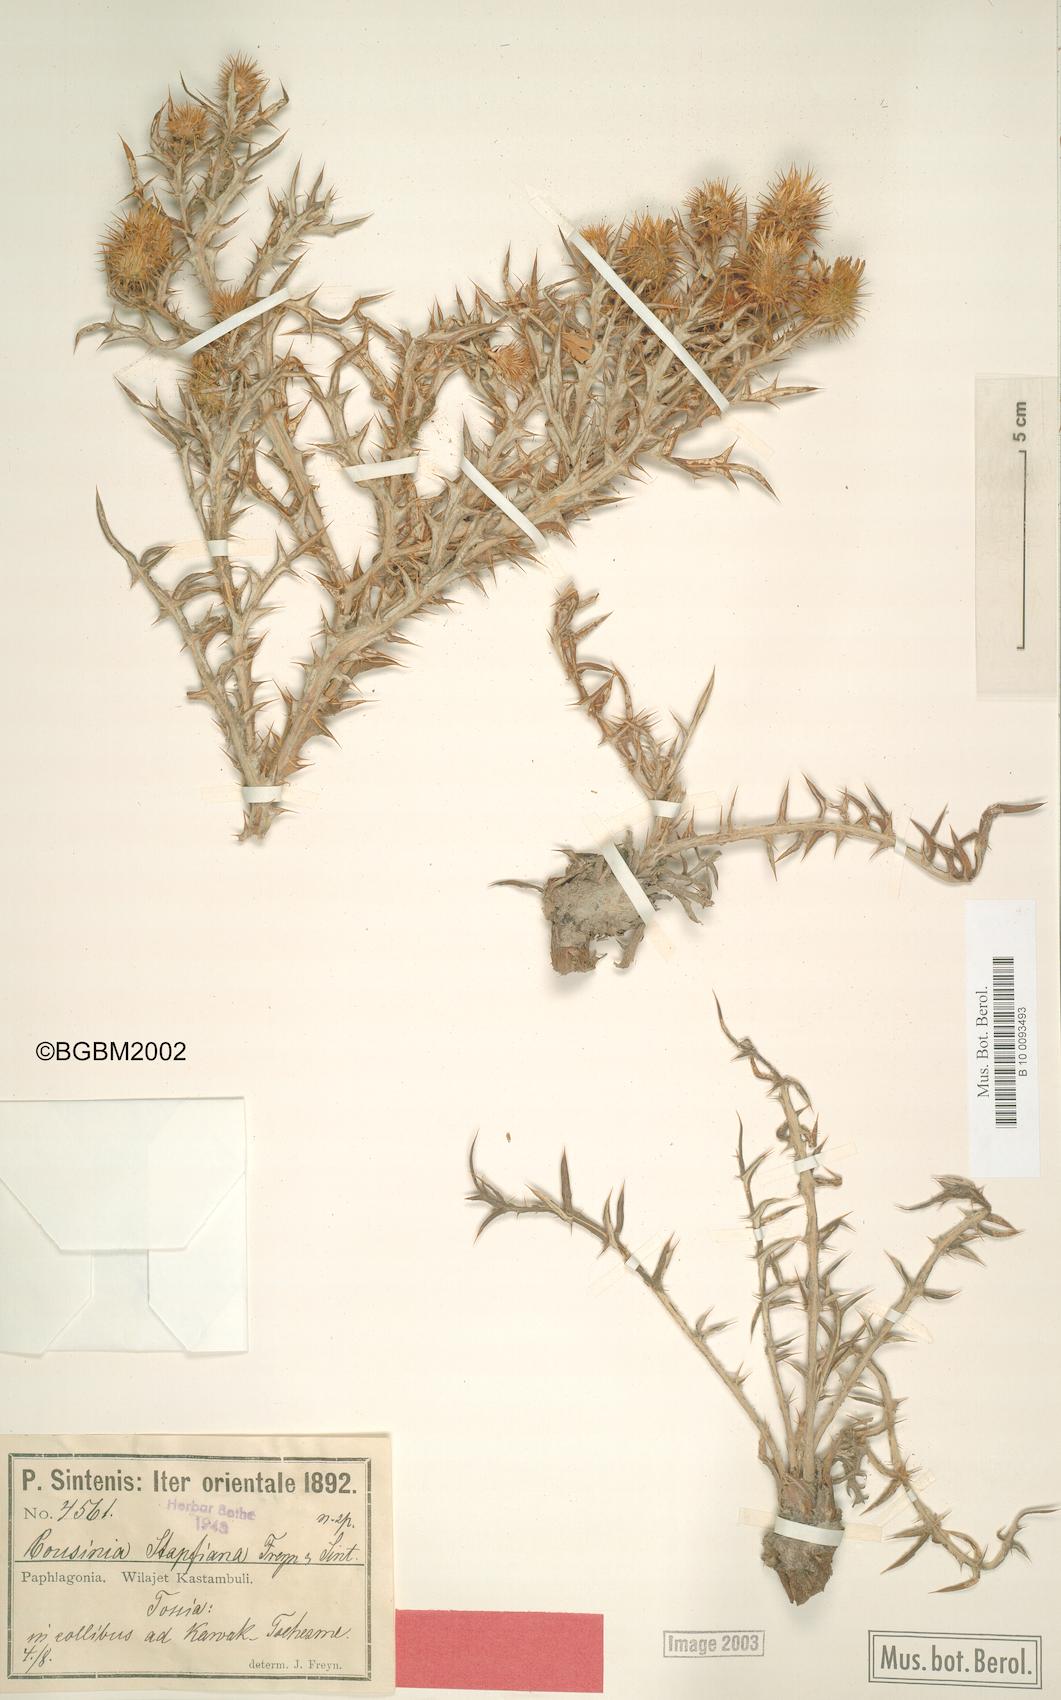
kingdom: Plantae
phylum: Tracheophyta
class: Magnoliopsida
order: Asterales
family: Asteraceae
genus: Cousinia
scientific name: Cousinia stapfiana
